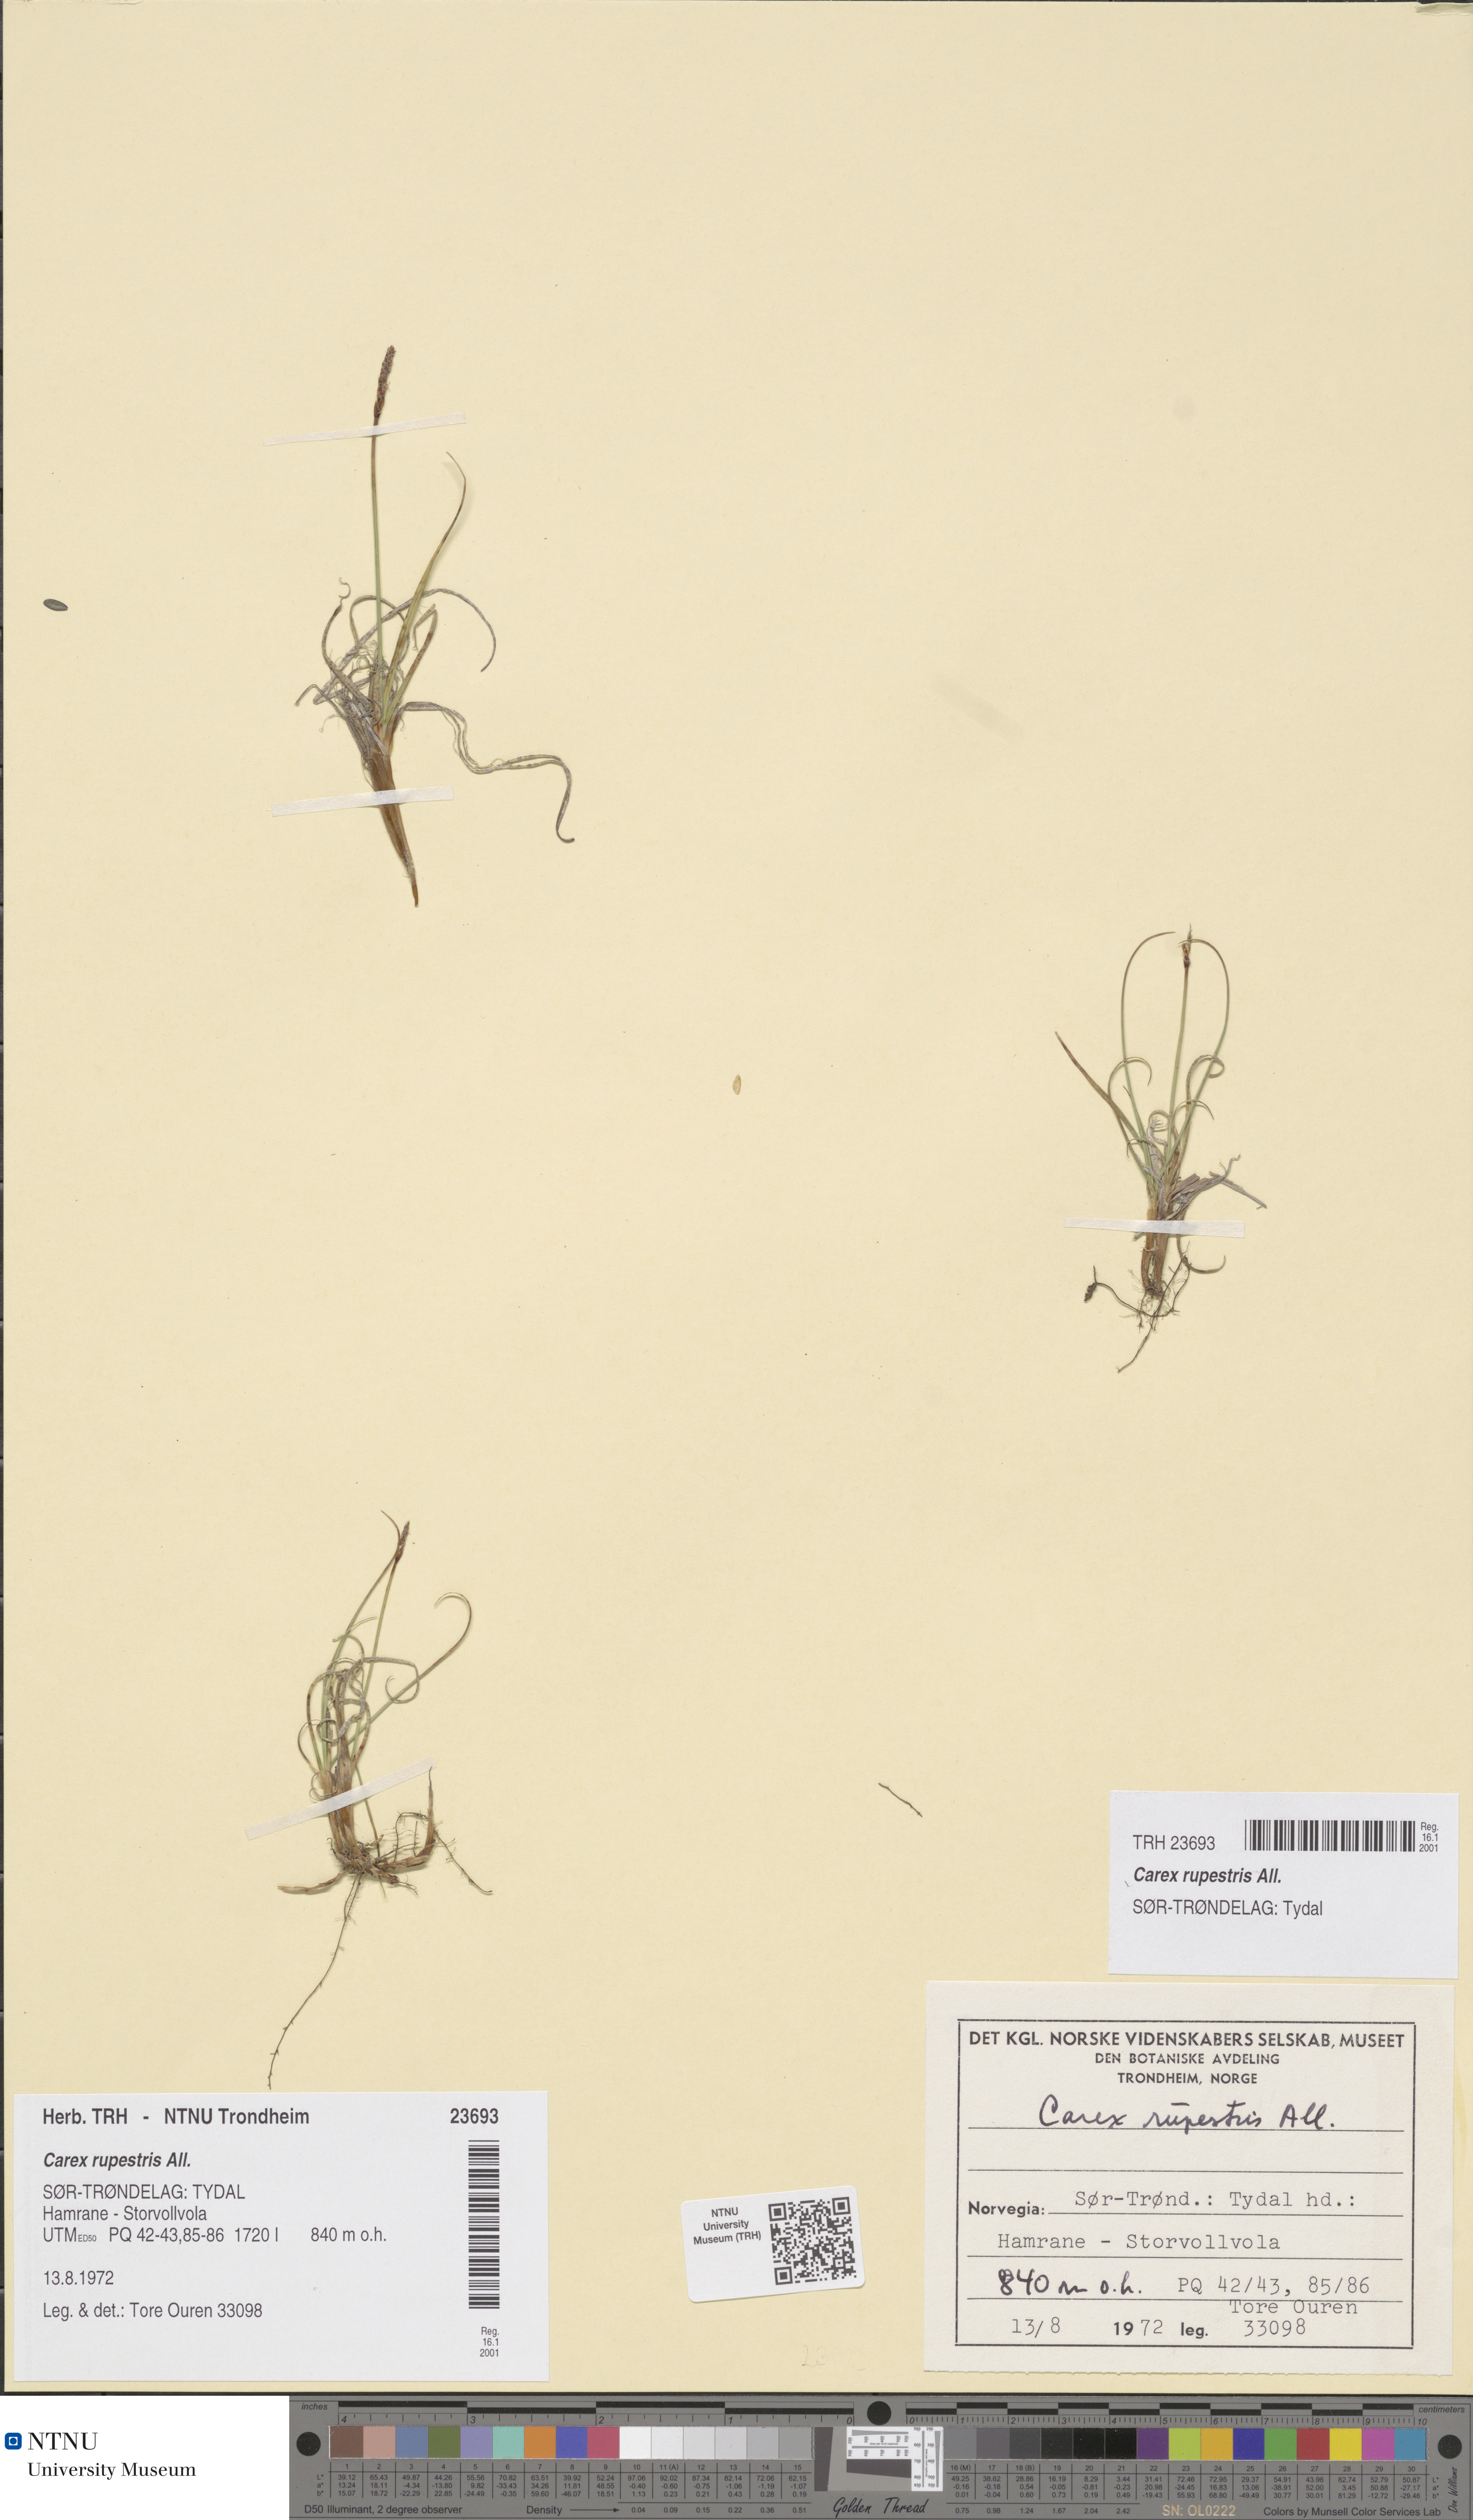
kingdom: Plantae
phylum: Tracheophyta
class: Liliopsida
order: Poales
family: Cyperaceae
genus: Carex
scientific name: Carex rupestris
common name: Rock sedge
